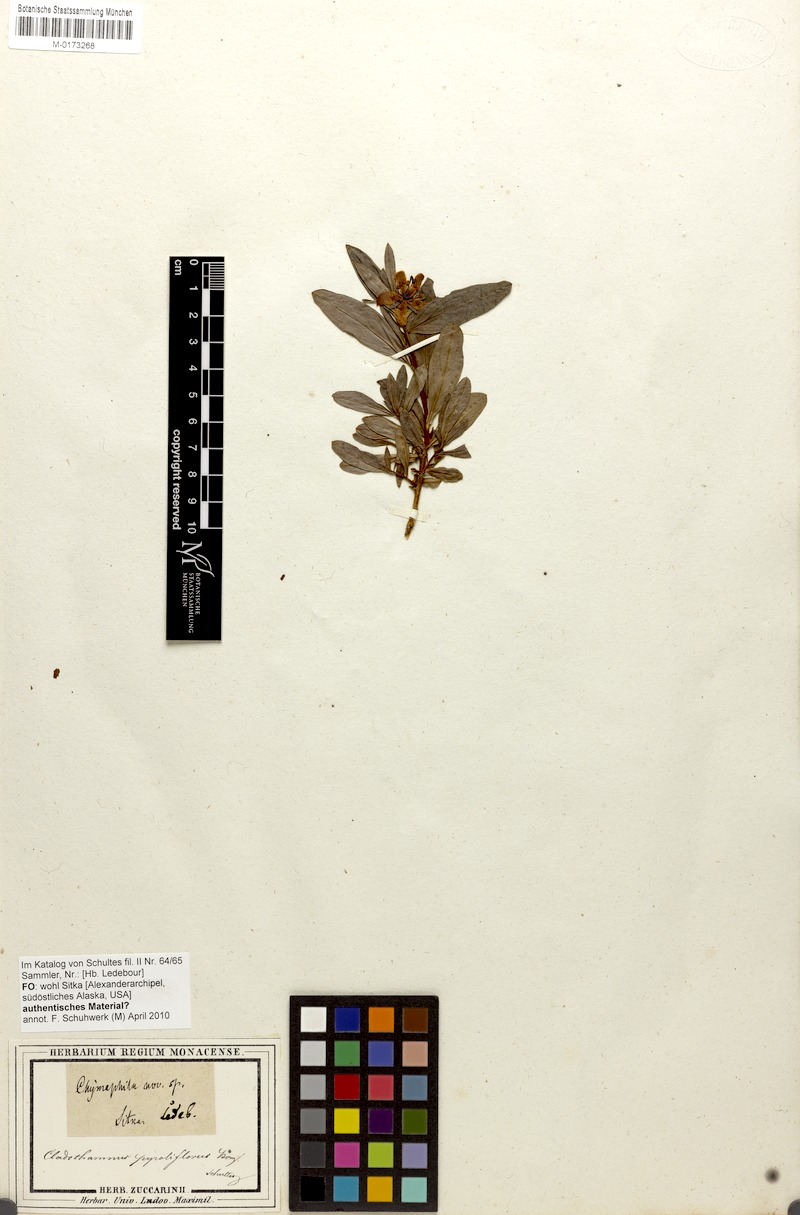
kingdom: Plantae
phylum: Tracheophyta
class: Magnoliopsida
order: Ericales
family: Ericaceae
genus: Elliottia
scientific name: Elliottia pyroliflora
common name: Copperbush
